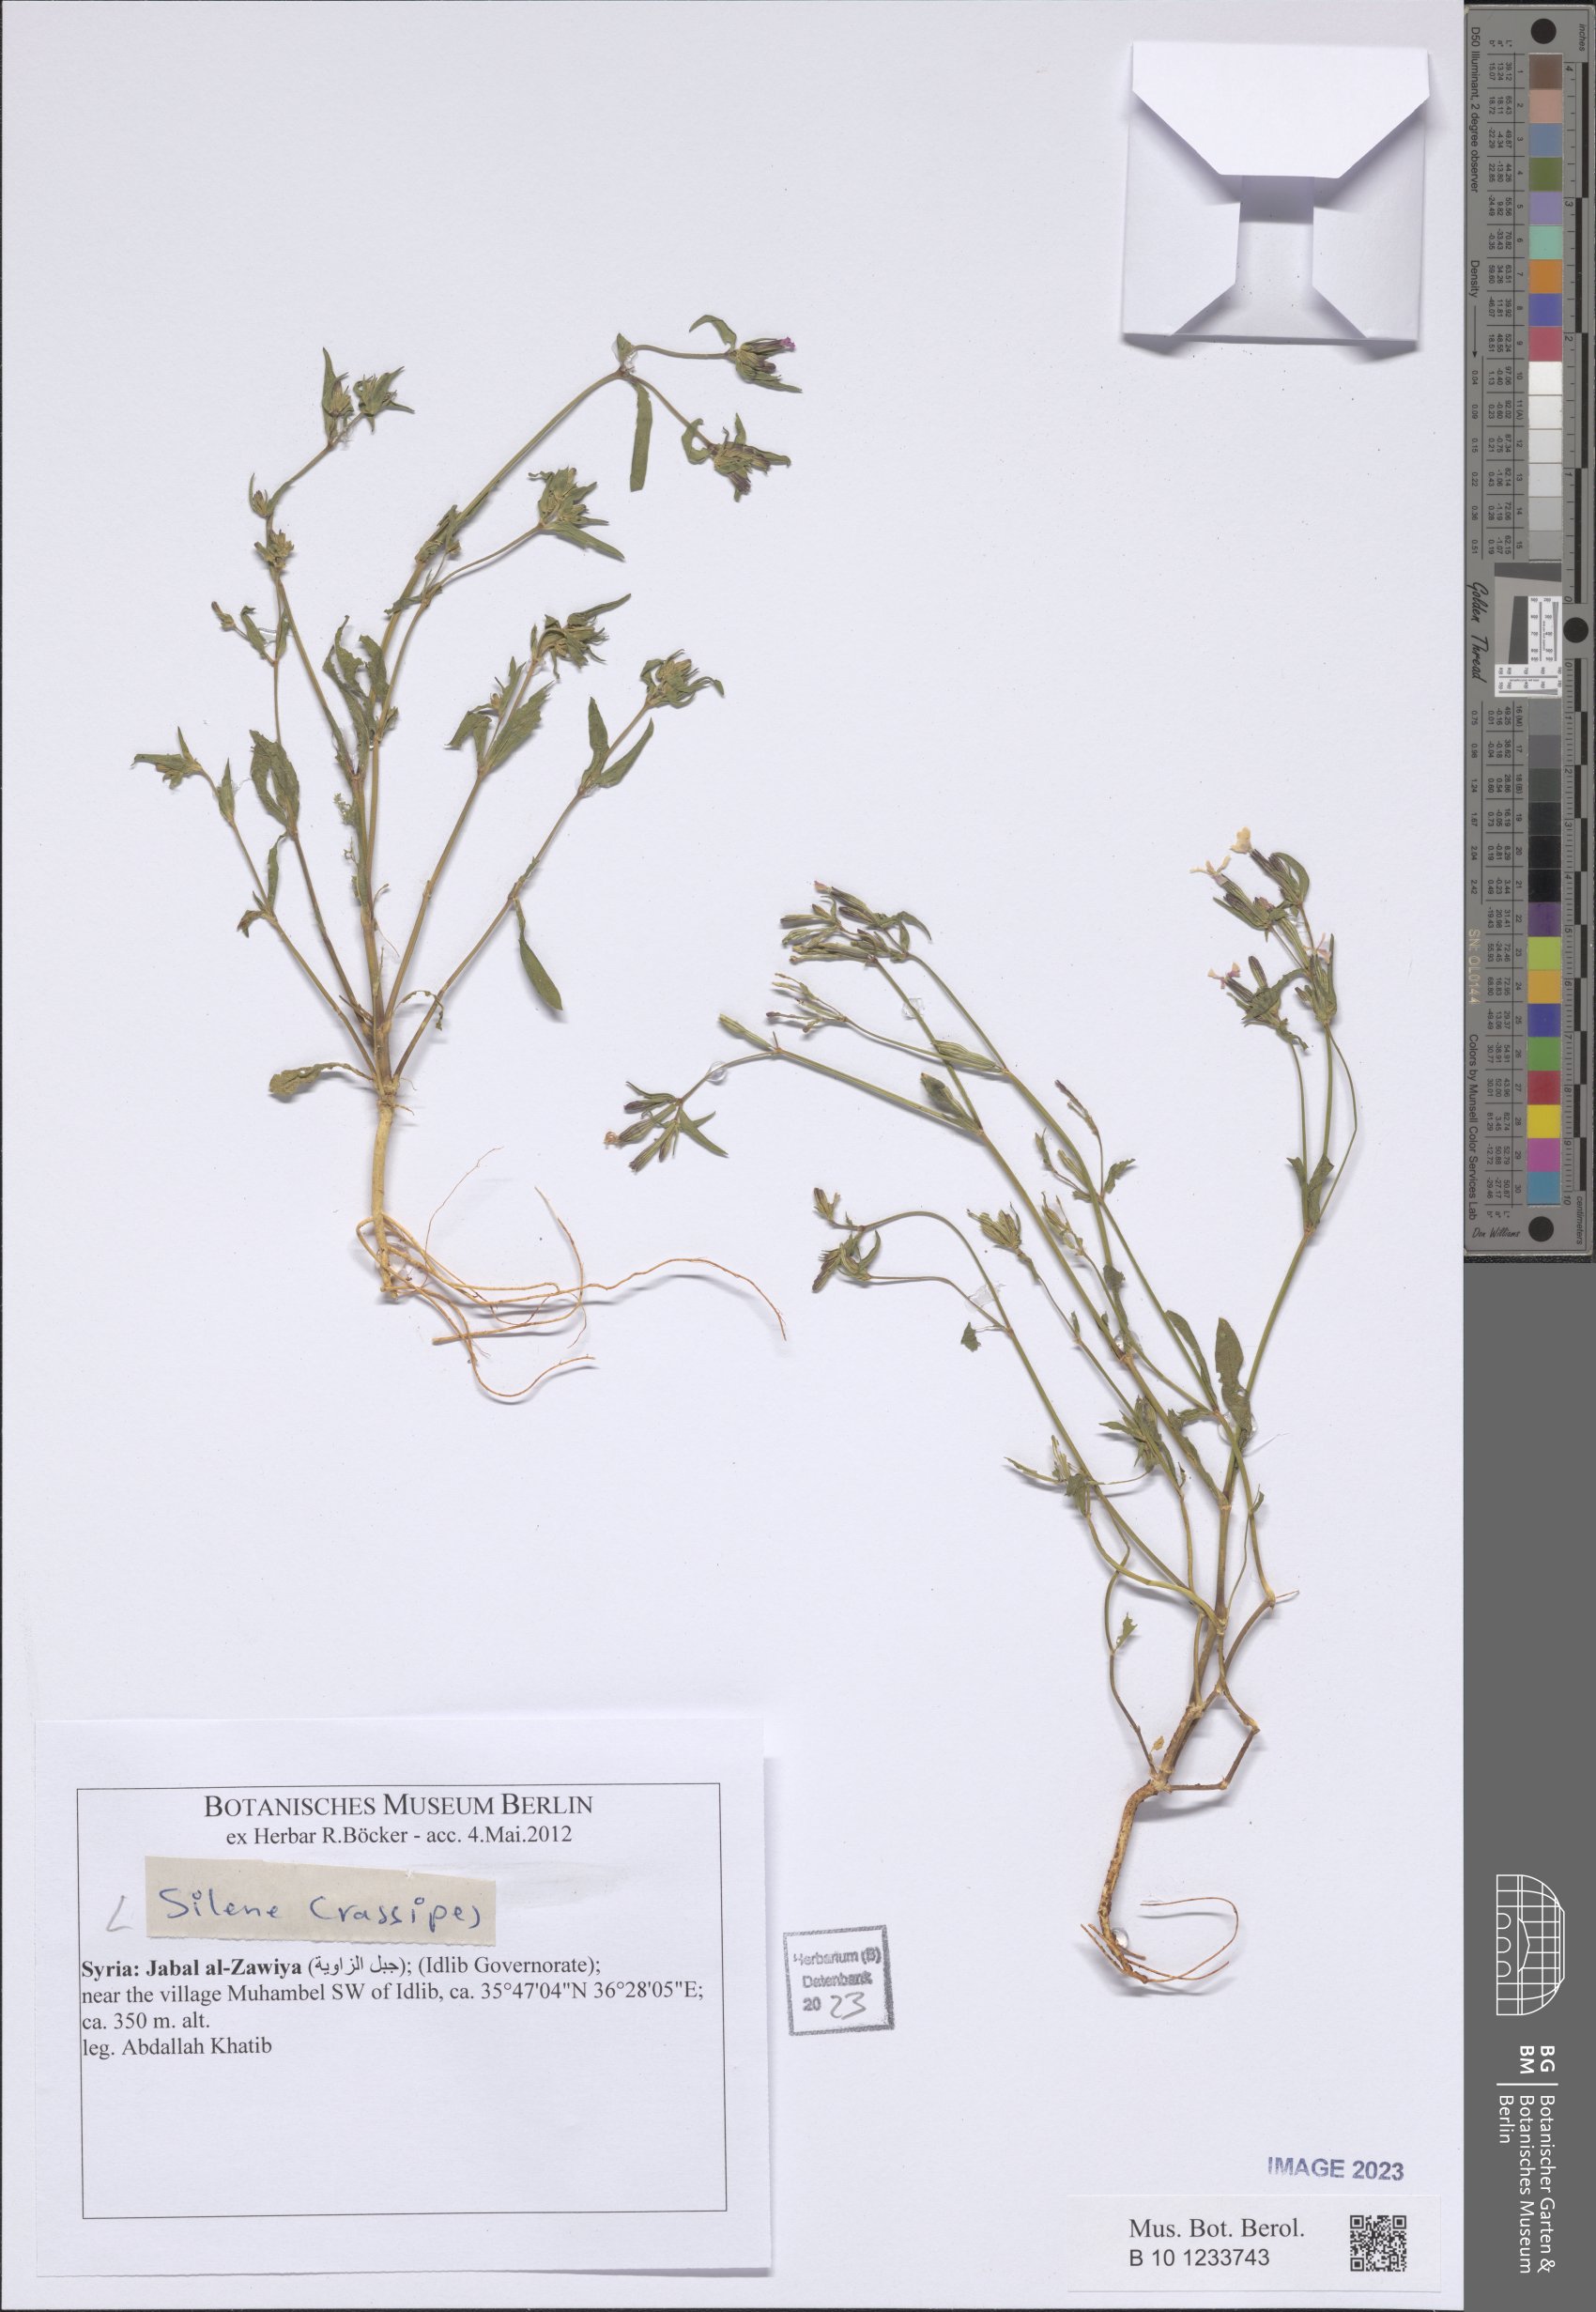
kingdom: Plantae
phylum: Tracheophyta
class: Magnoliopsida
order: Caryophyllales
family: Caryophyllaceae
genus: Silene
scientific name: Silene crassipes
